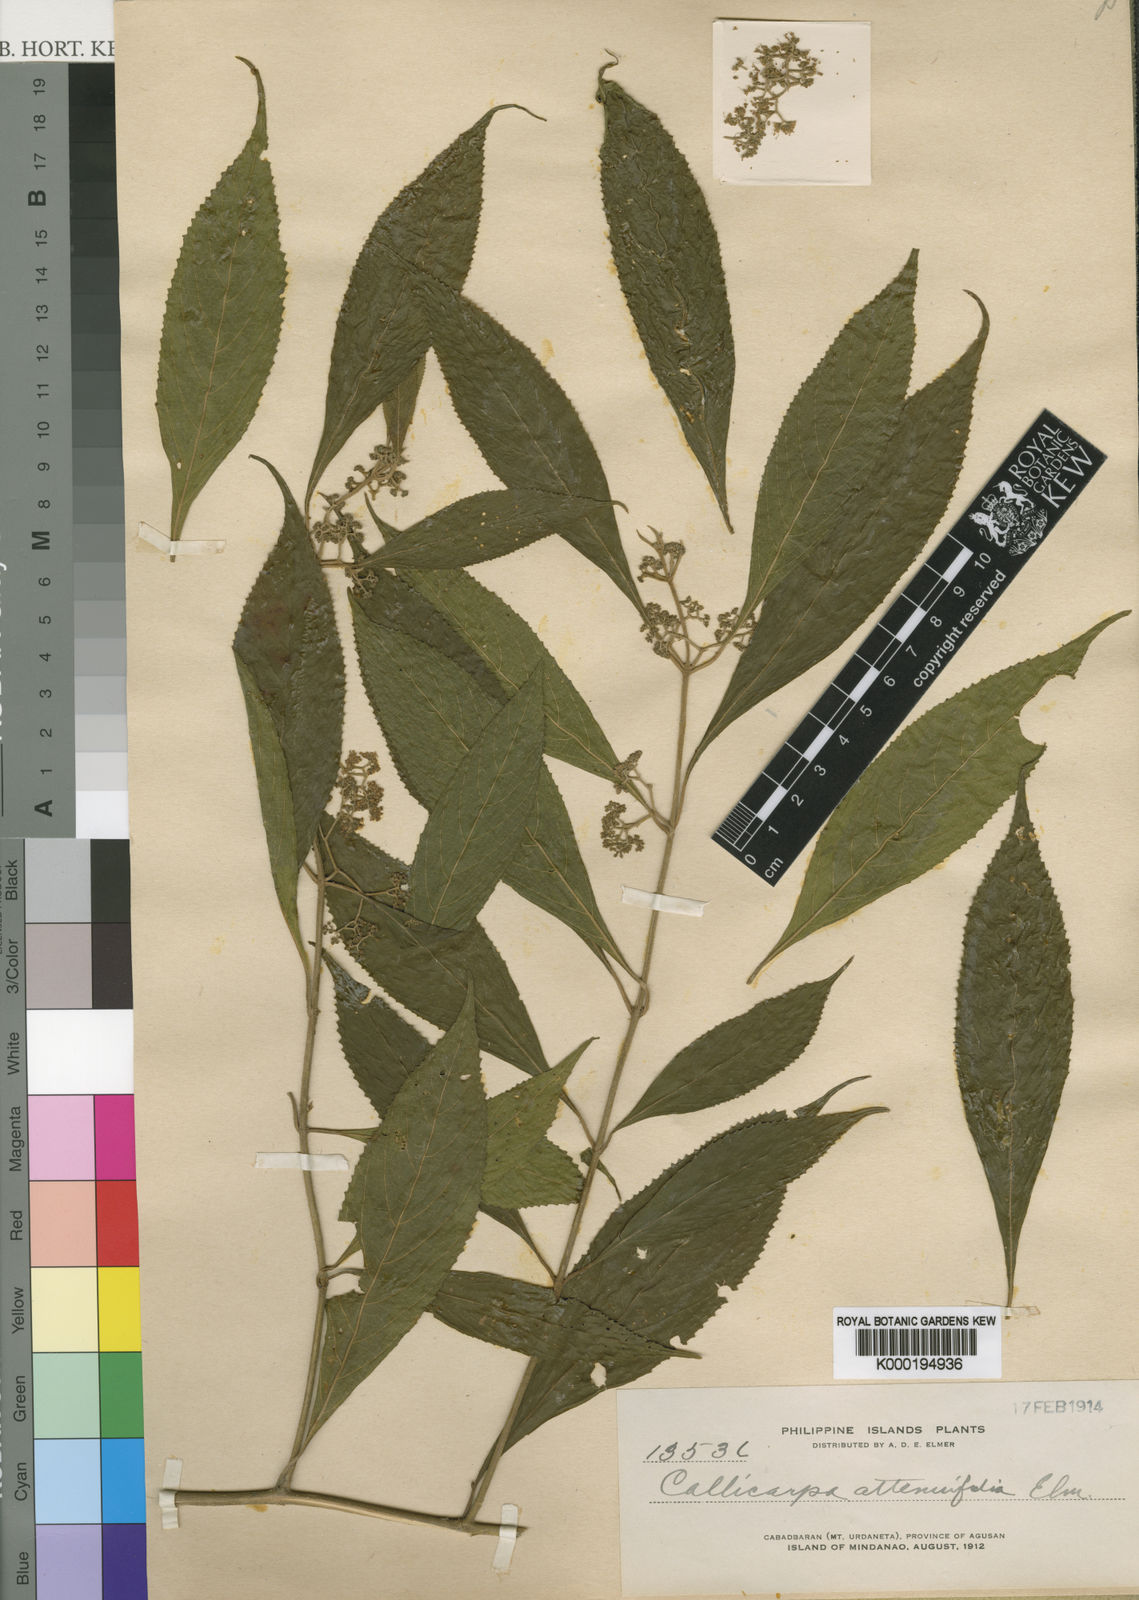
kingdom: Plantae
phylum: Tracheophyta
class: Magnoliopsida
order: Lamiales
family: Lamiaceae
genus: Callicarpa
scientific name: Callicarpa longifolia
